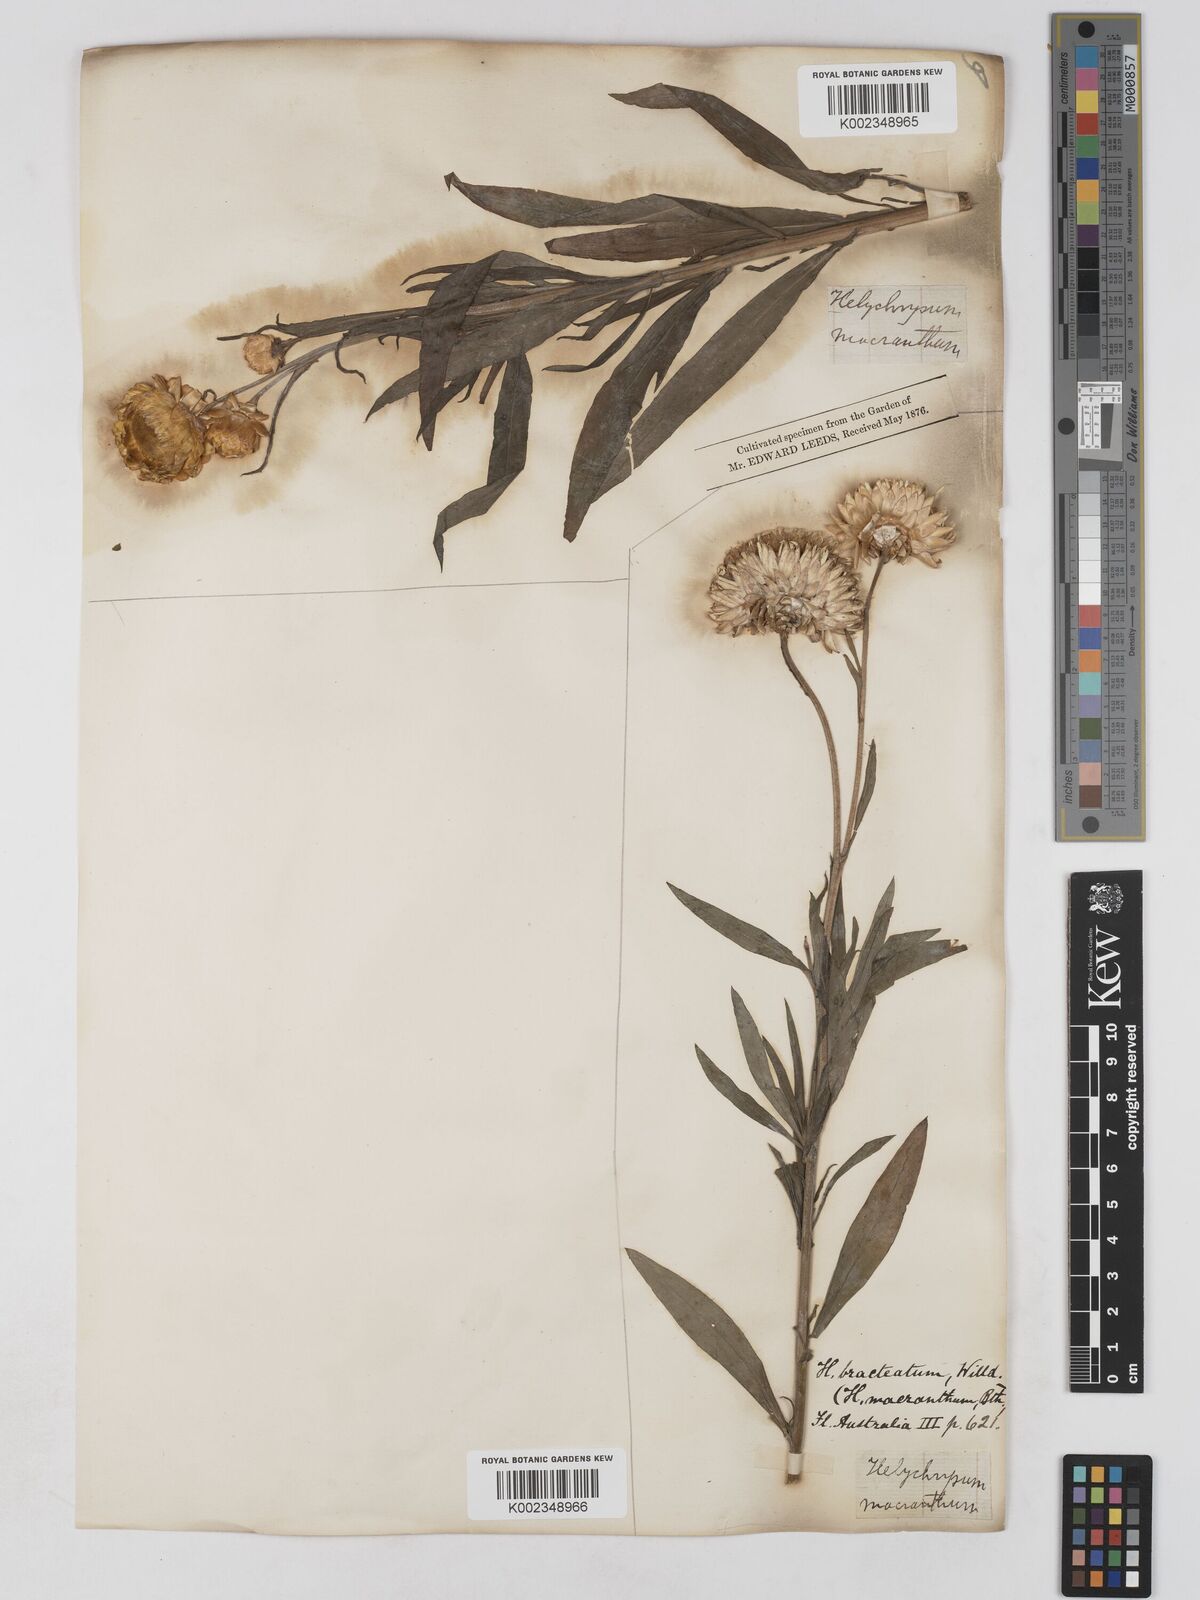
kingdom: Plantae
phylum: Tracheophyta
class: Magnoliopsida
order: Asterales
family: Asteraceae
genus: Xerochrysum
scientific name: Xerochrysum bracteatum
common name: Bracted strawflower
